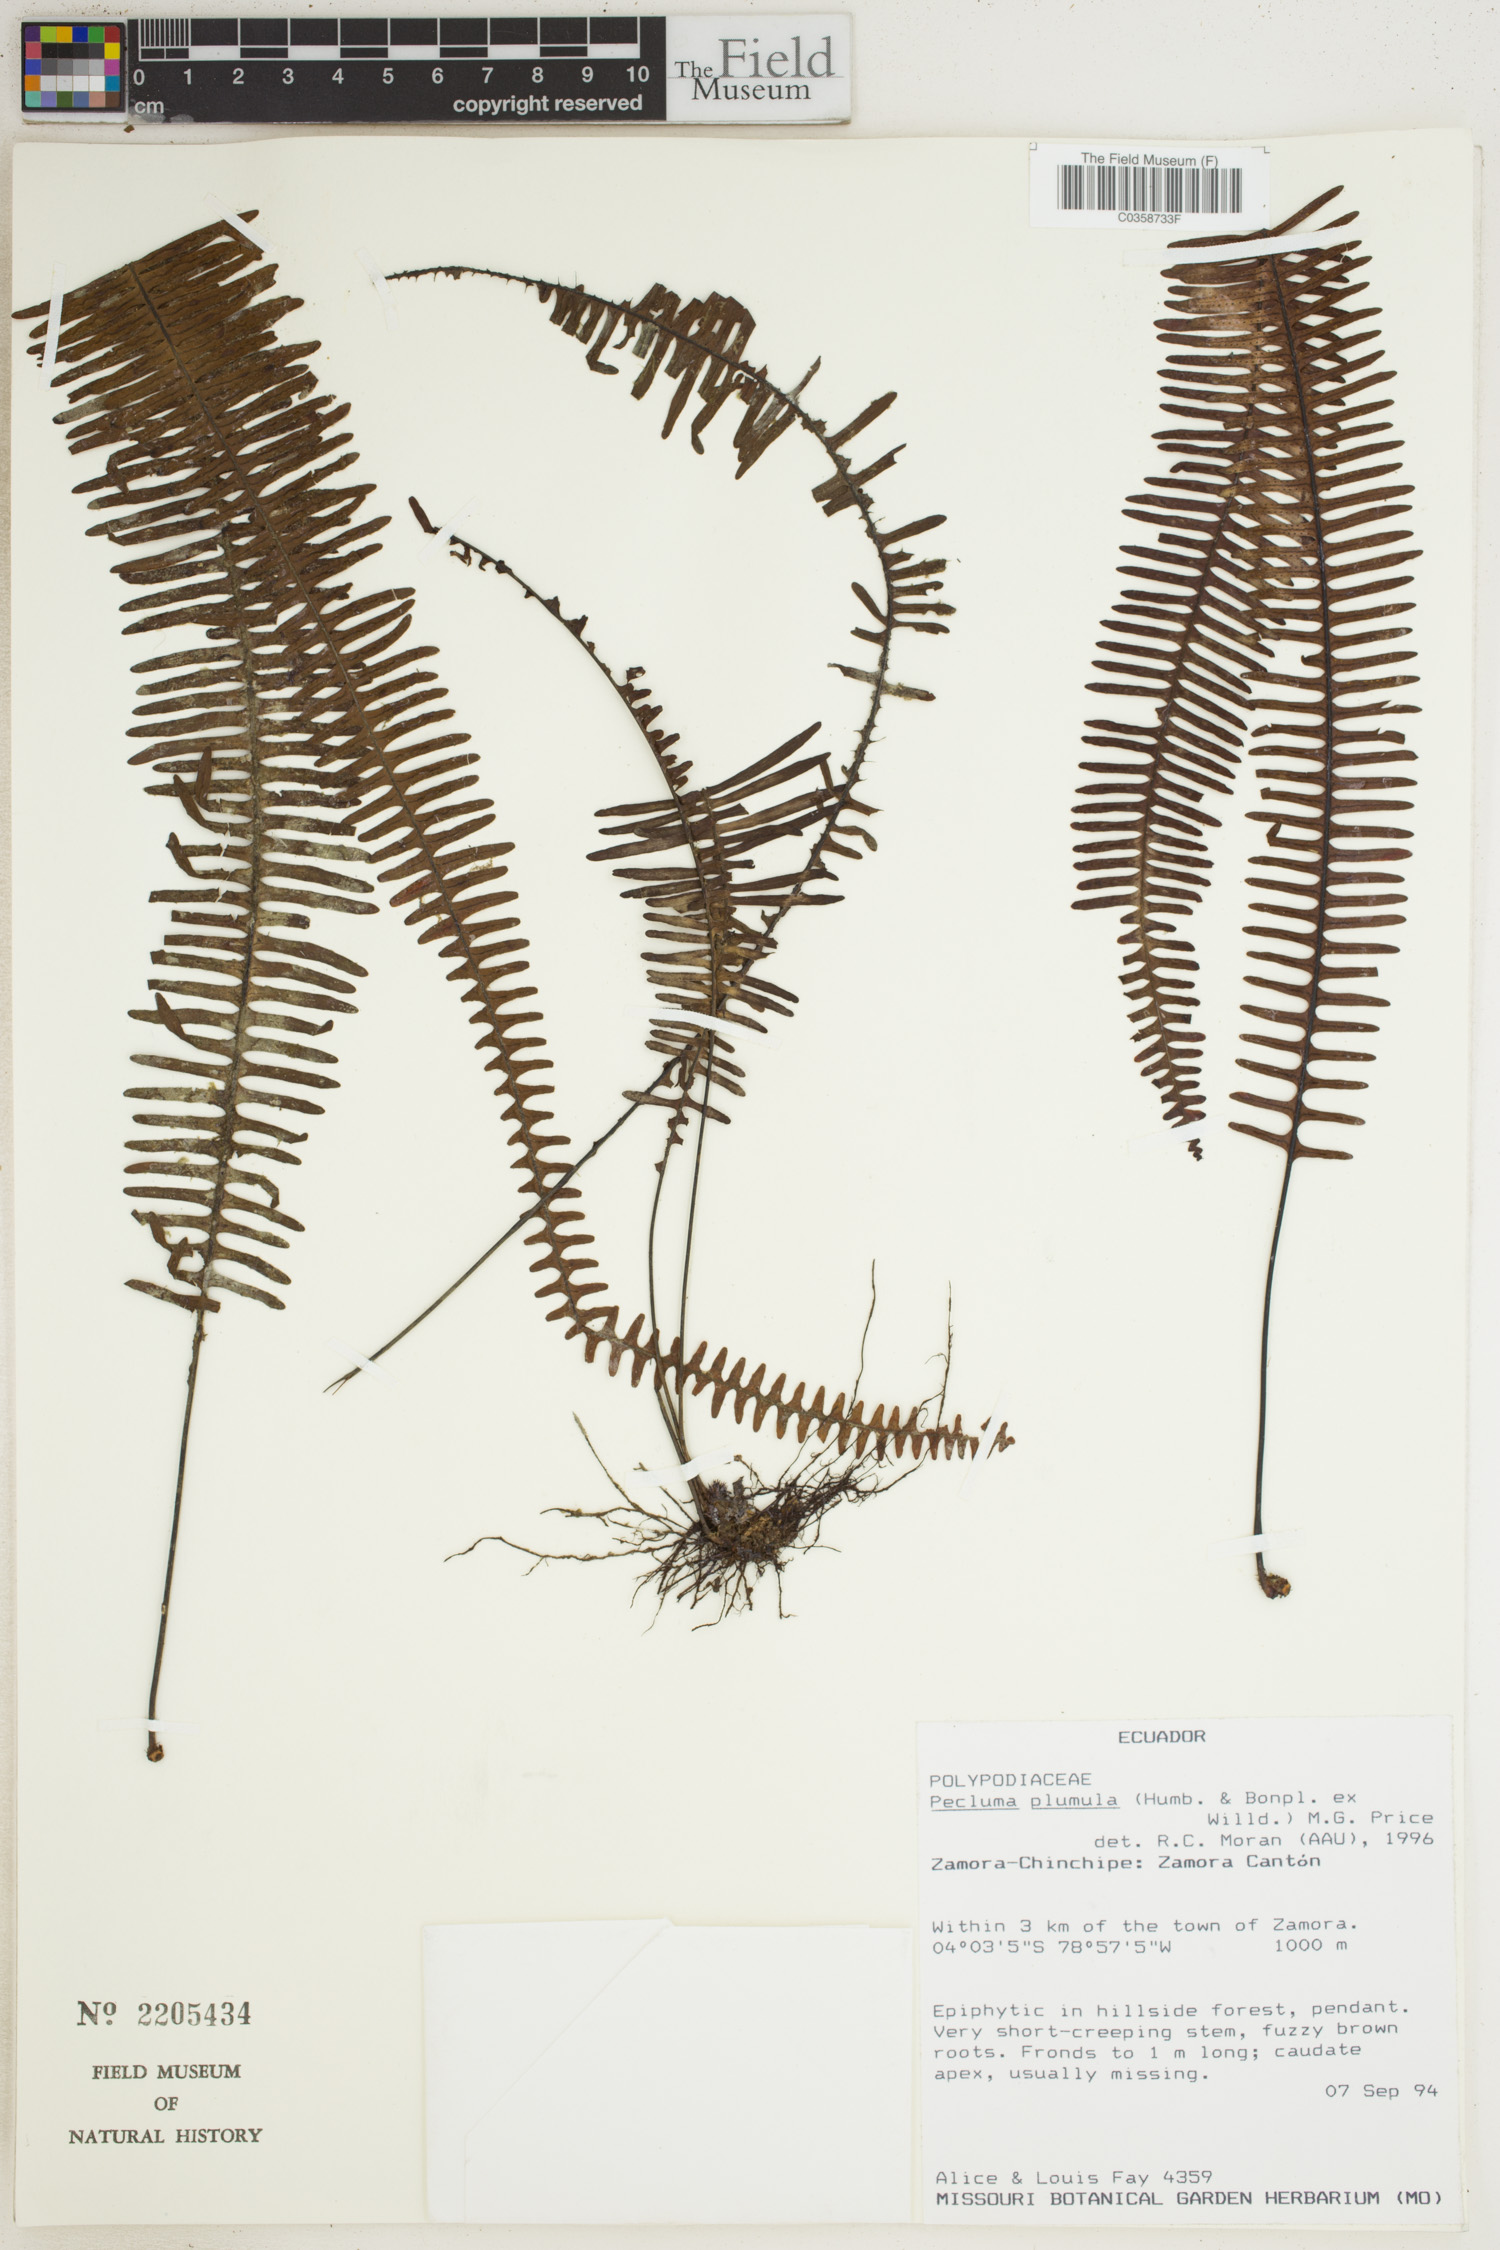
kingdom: Plantae
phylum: Tracheophyta
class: Polypodiopsida
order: Polypodiales
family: Polypodiaceae
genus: Pecluma
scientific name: Pecluma plumula
